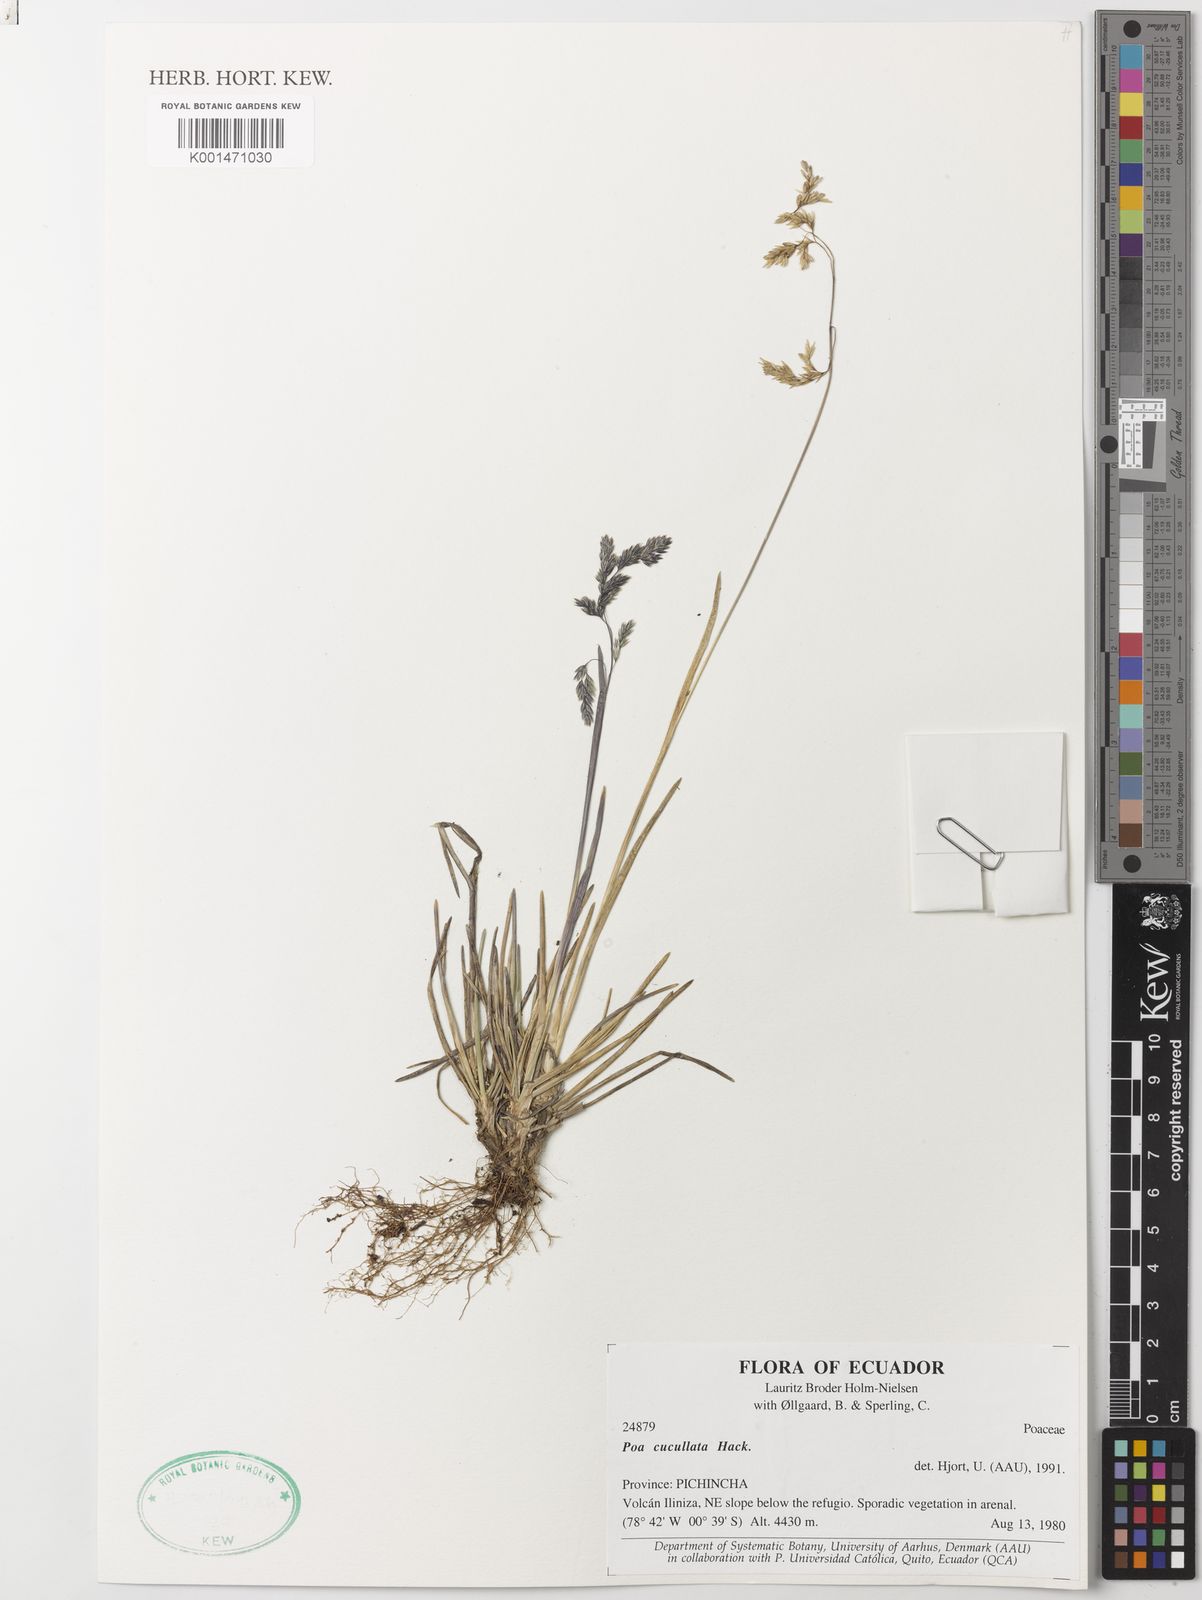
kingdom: Plantae
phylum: Tracheophyta
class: Liliopsida
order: Poales
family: Poaceae
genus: Poa
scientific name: Poa cucullata
